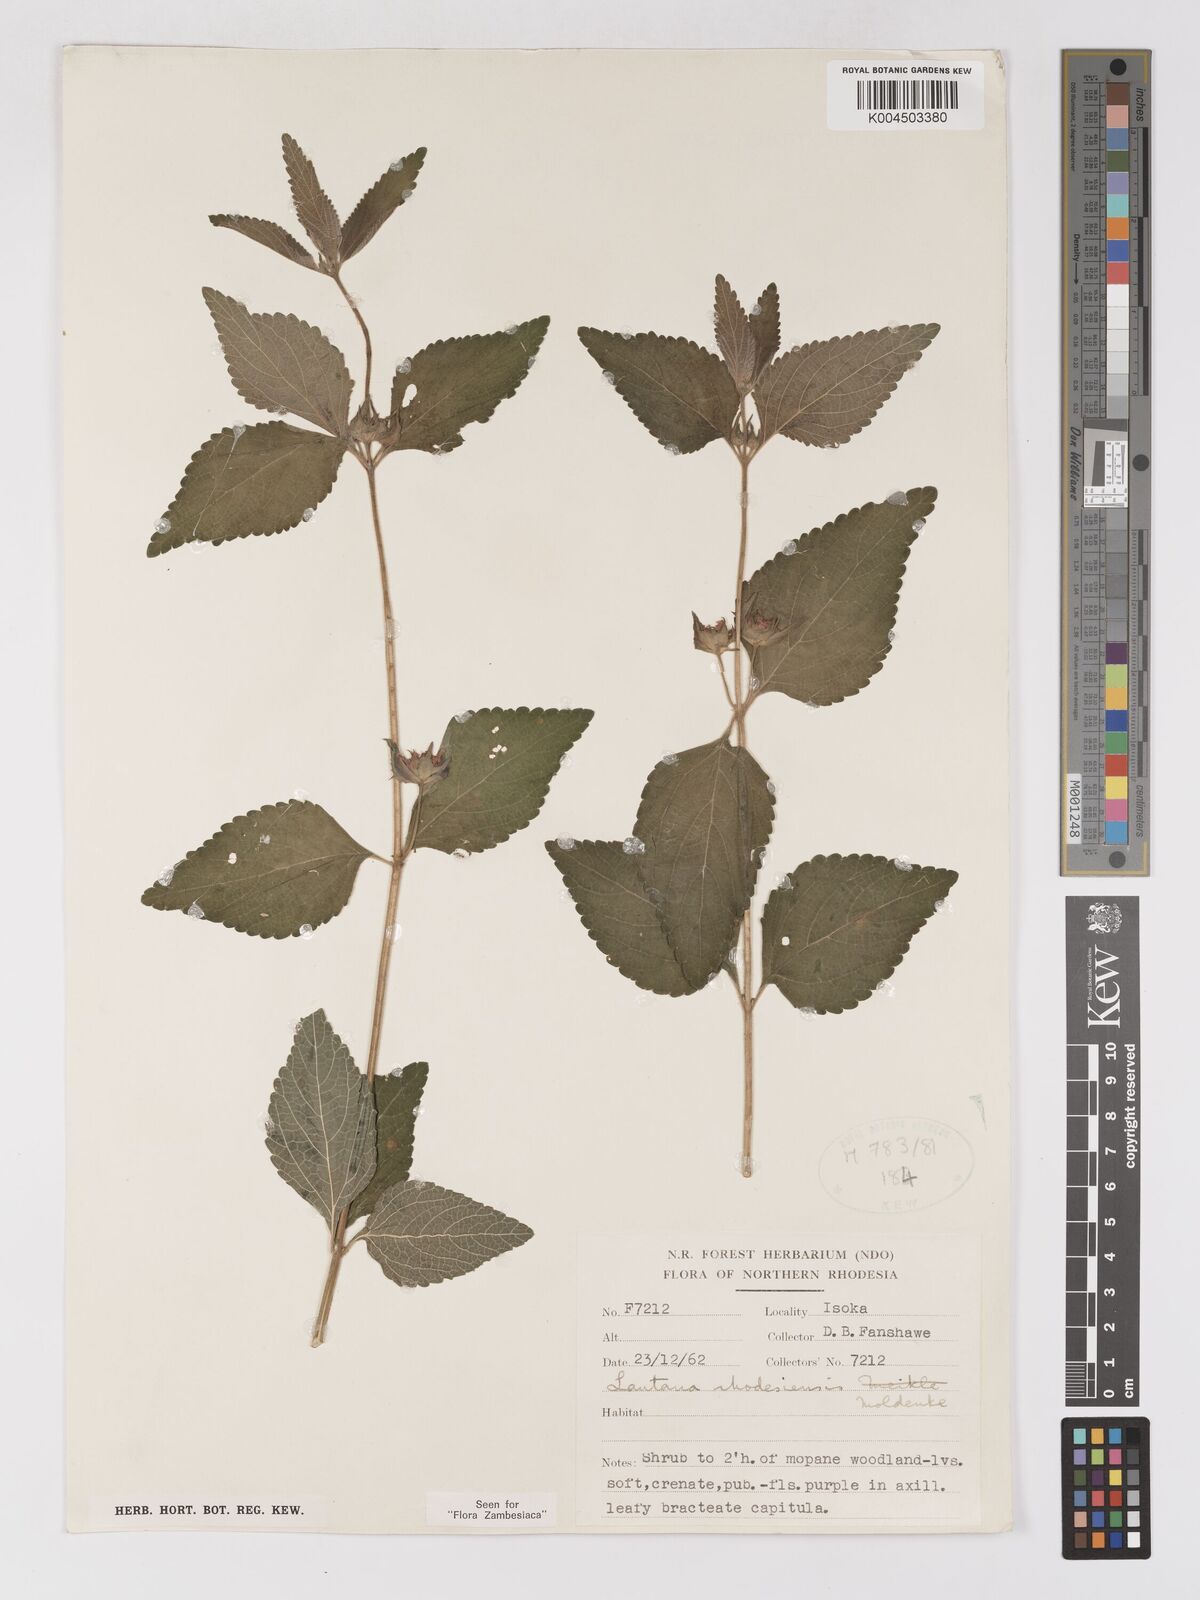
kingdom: Plantae
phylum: Tracheophyta
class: Magnoliopsida
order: Lamiales
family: Verbenaceae
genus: Lantana
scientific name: Lantana ukambensis
